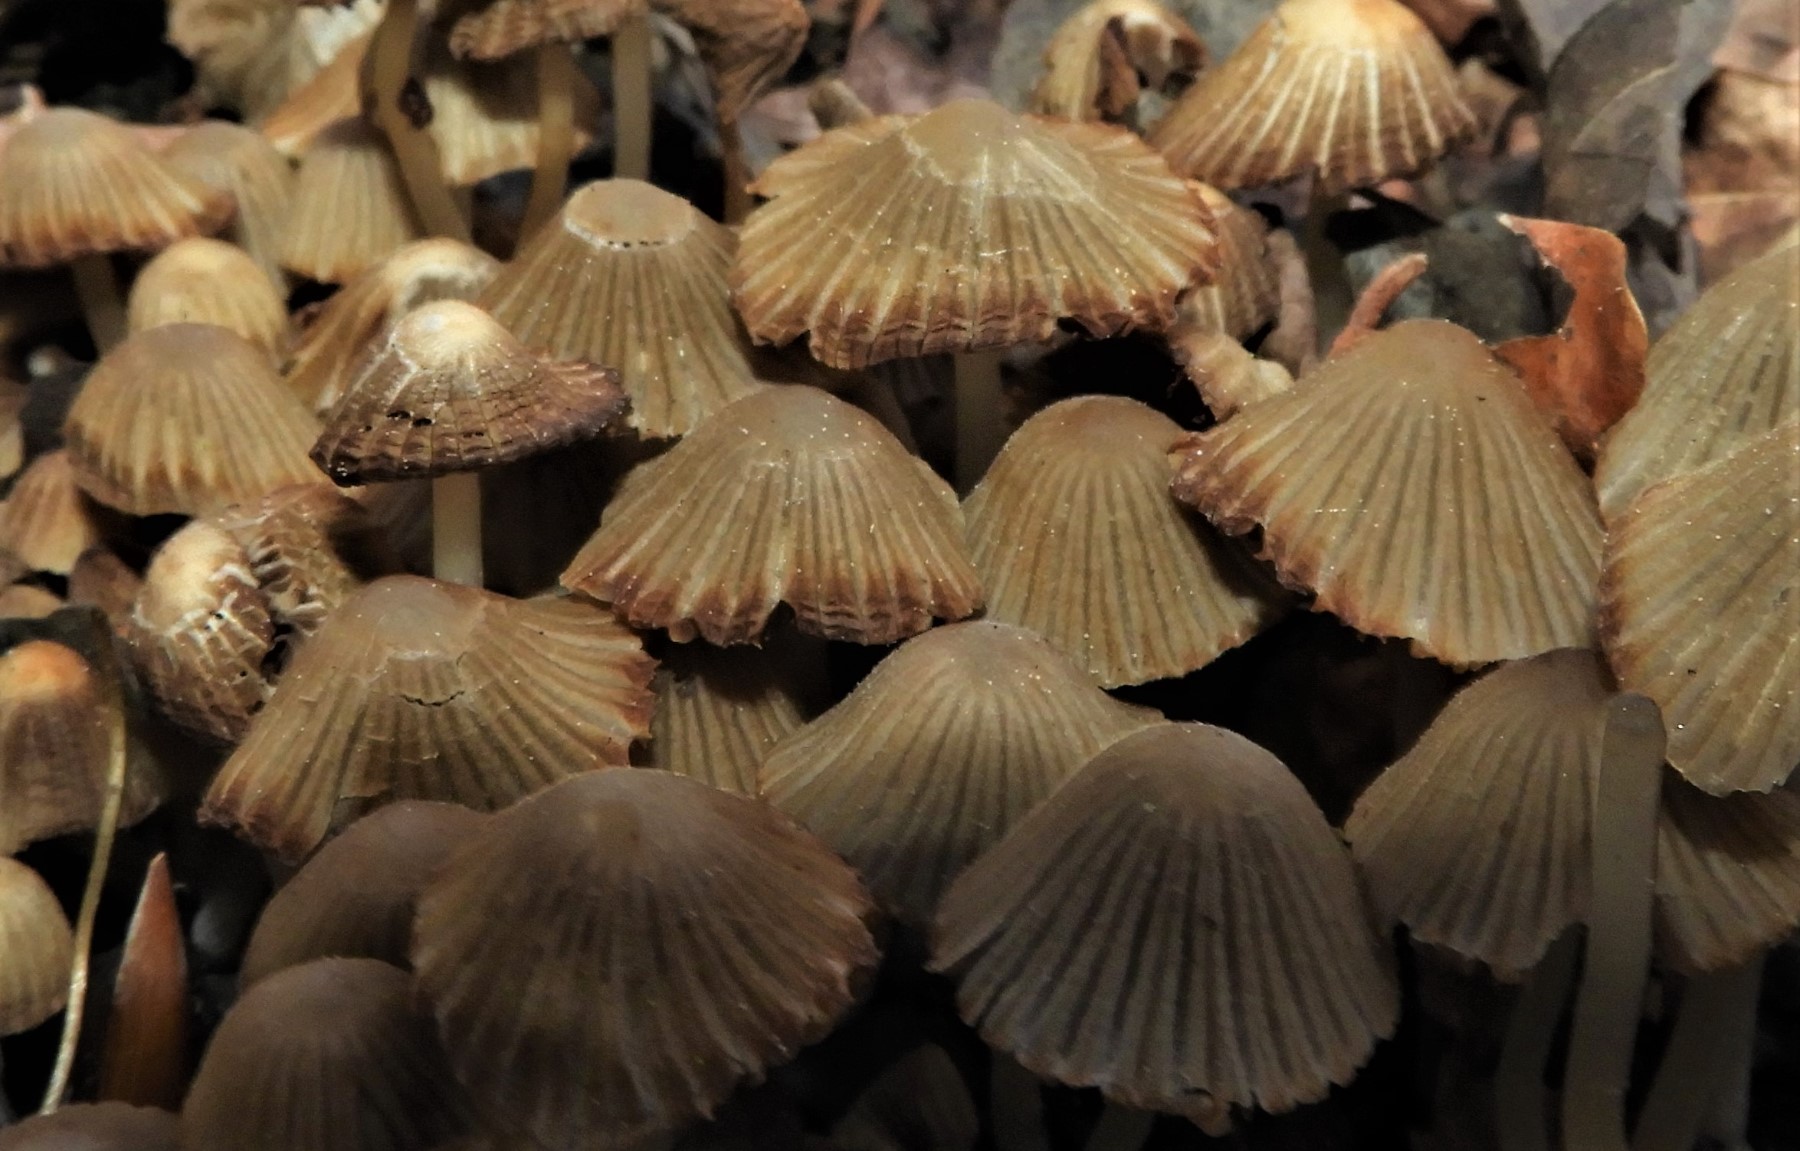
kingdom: Fungi
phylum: Basidiomycota
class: Agaricomycetes
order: Agaricales
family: Psathyrellaceae
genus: Coprinellus
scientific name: Coprinellus disseminatus
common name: bredsået blækhat
